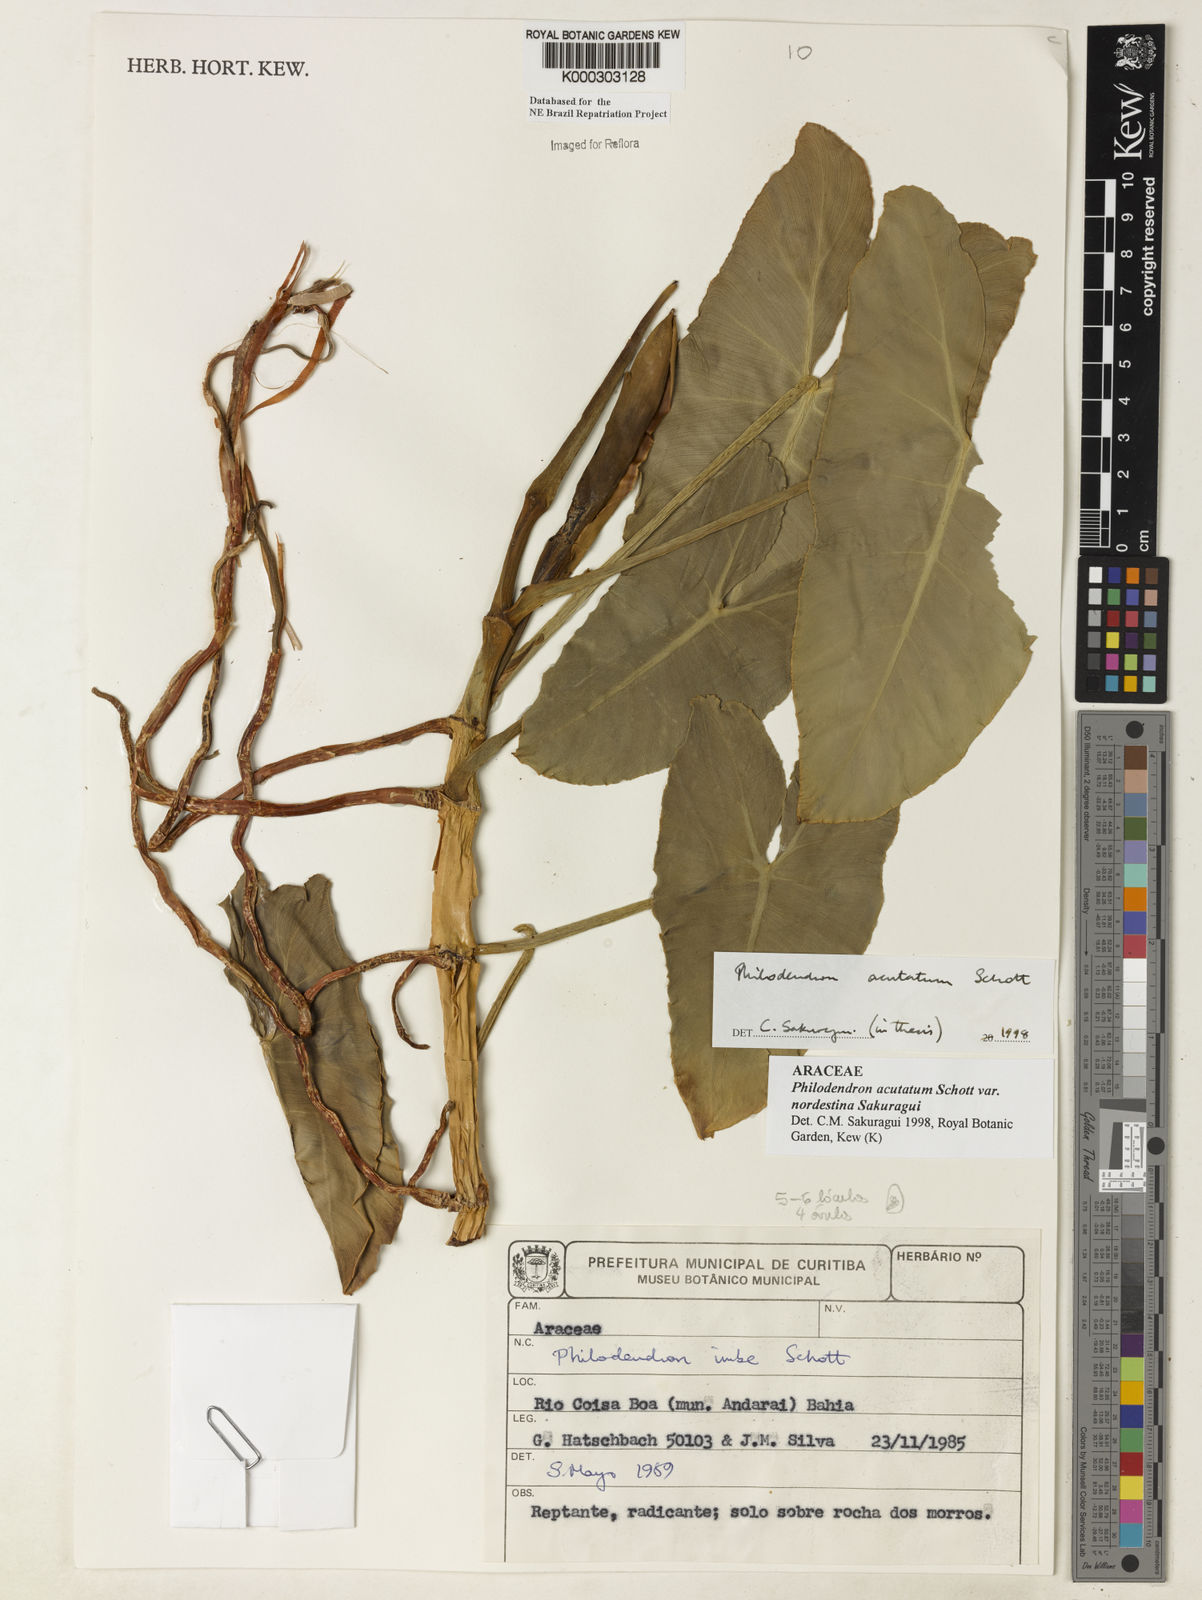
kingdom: Plantae
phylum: Tracheophyta
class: Liliopsida
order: Alismatales
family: Araceae
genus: Philodendron
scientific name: Philodendron quinquenervium
